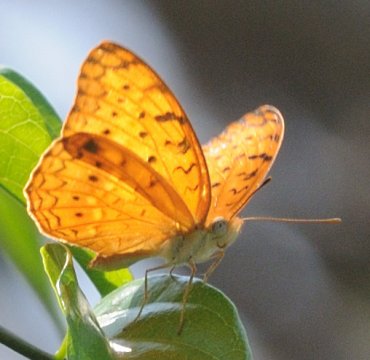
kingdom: Animalia
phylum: Arthropoda
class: Insecta
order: Lepidoptera
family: Nymphalidae
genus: Phalanta
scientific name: Phalanta phalantha
